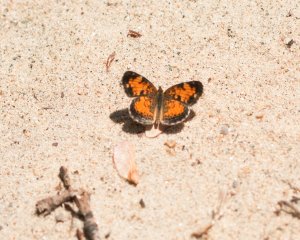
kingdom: Animalia
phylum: Arthropoda
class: Insecta
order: Lepidoptera
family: Nymphalidae
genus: Phyciodes
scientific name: Phyciodes tharos
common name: Northern Crescent
